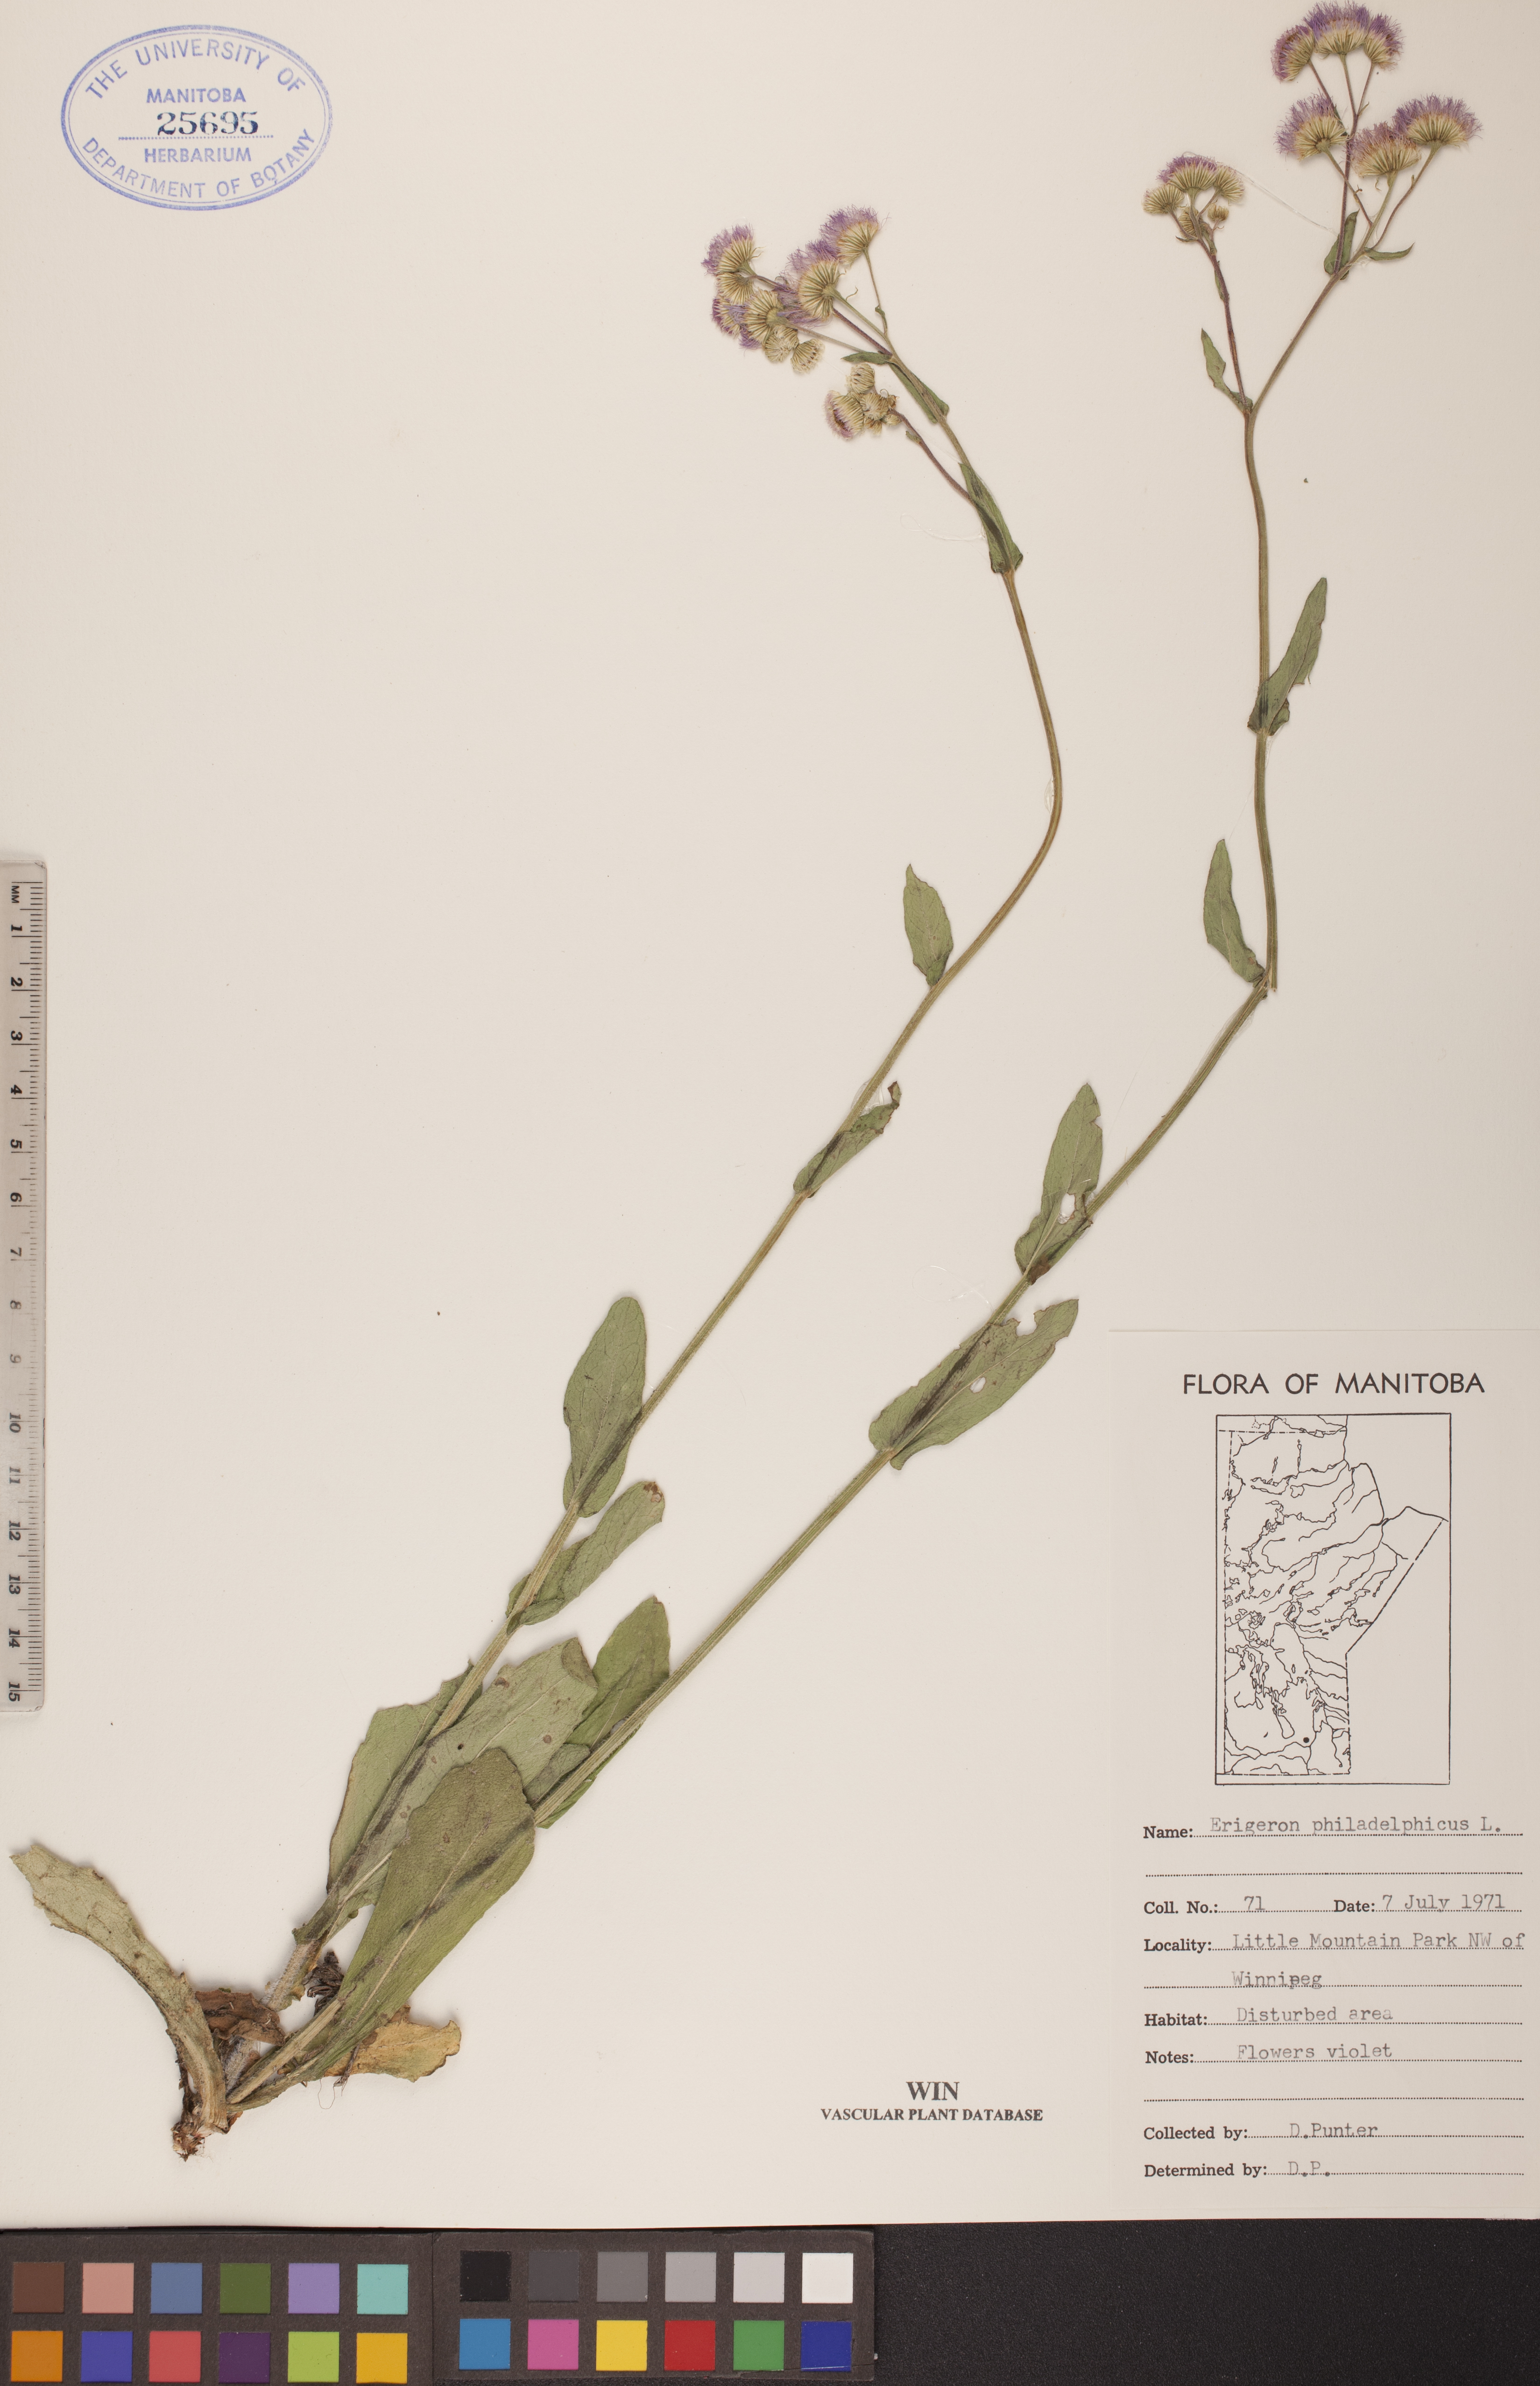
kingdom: Plantae
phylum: Tracheophyta
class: Magnoliopsida
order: Asterales
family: Asteraceae
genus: Erigeron
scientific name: Erigeron philadelphicus
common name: Robin's-plantain
